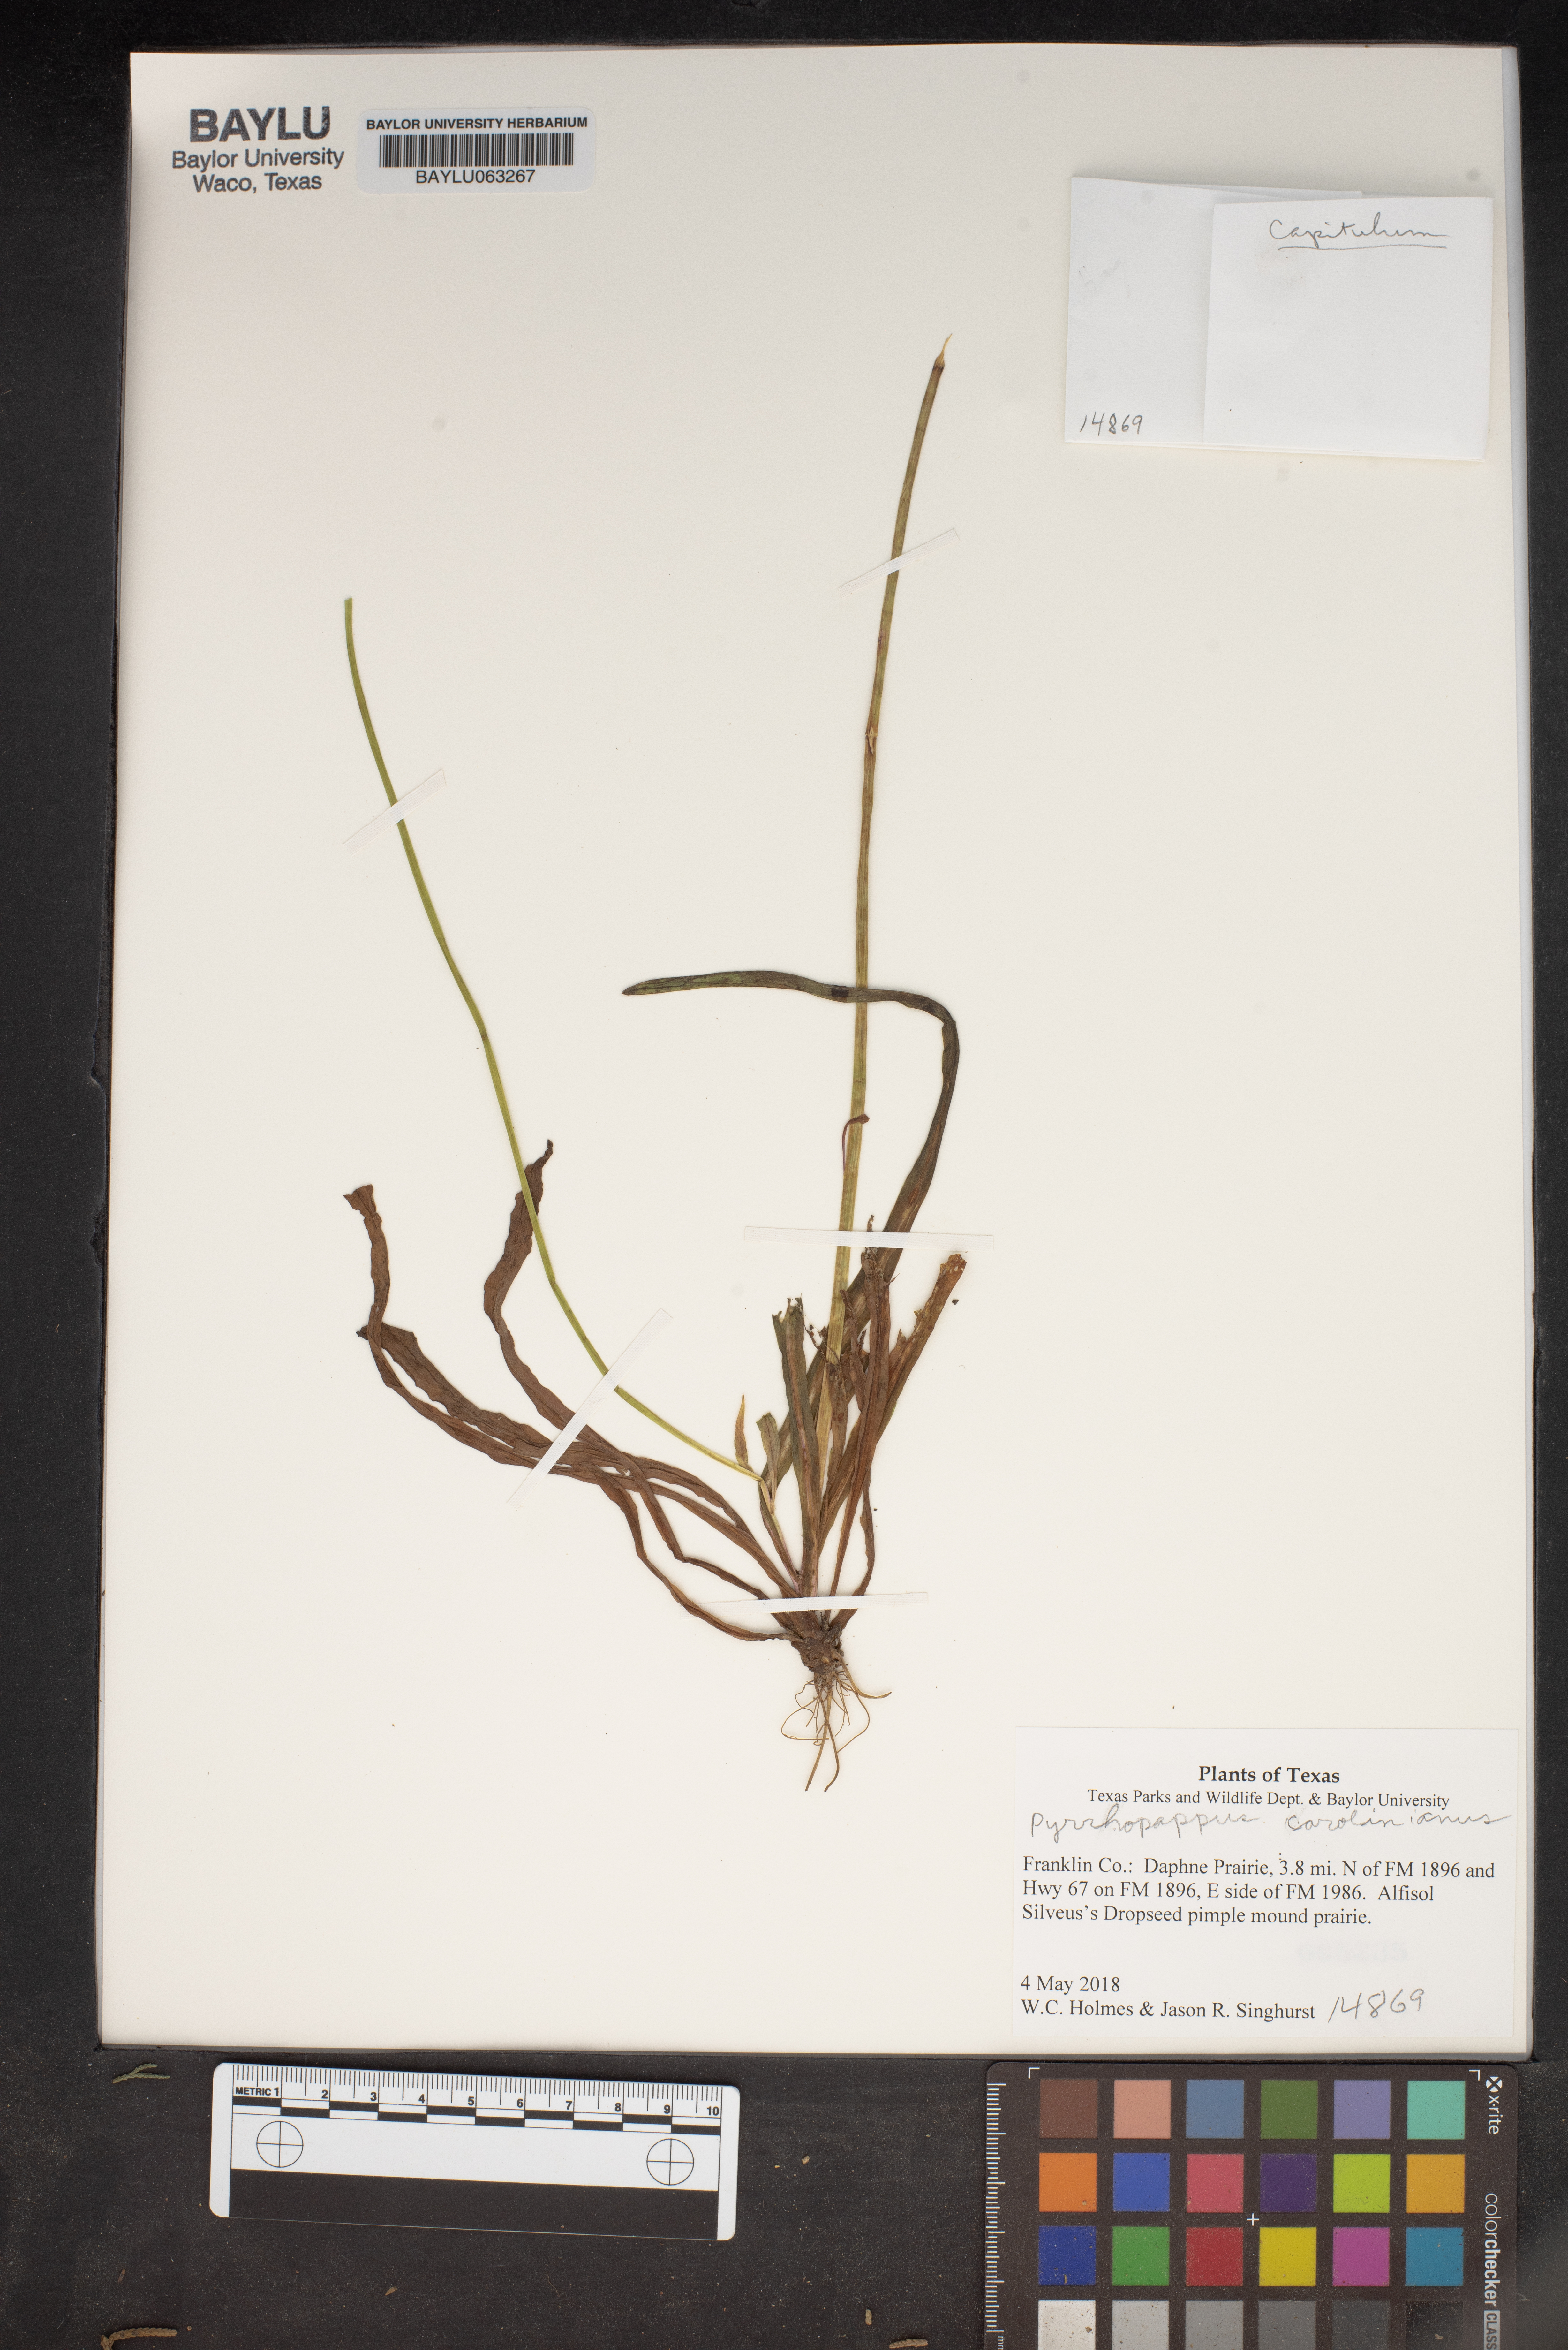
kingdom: Plantae
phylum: Tracheophyta
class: Magnoliopsida
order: Asterales
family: Asteraceae
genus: Pyrrhopappus
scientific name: Pyrrhopappus carolinianus
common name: Carolina desert-chicory
